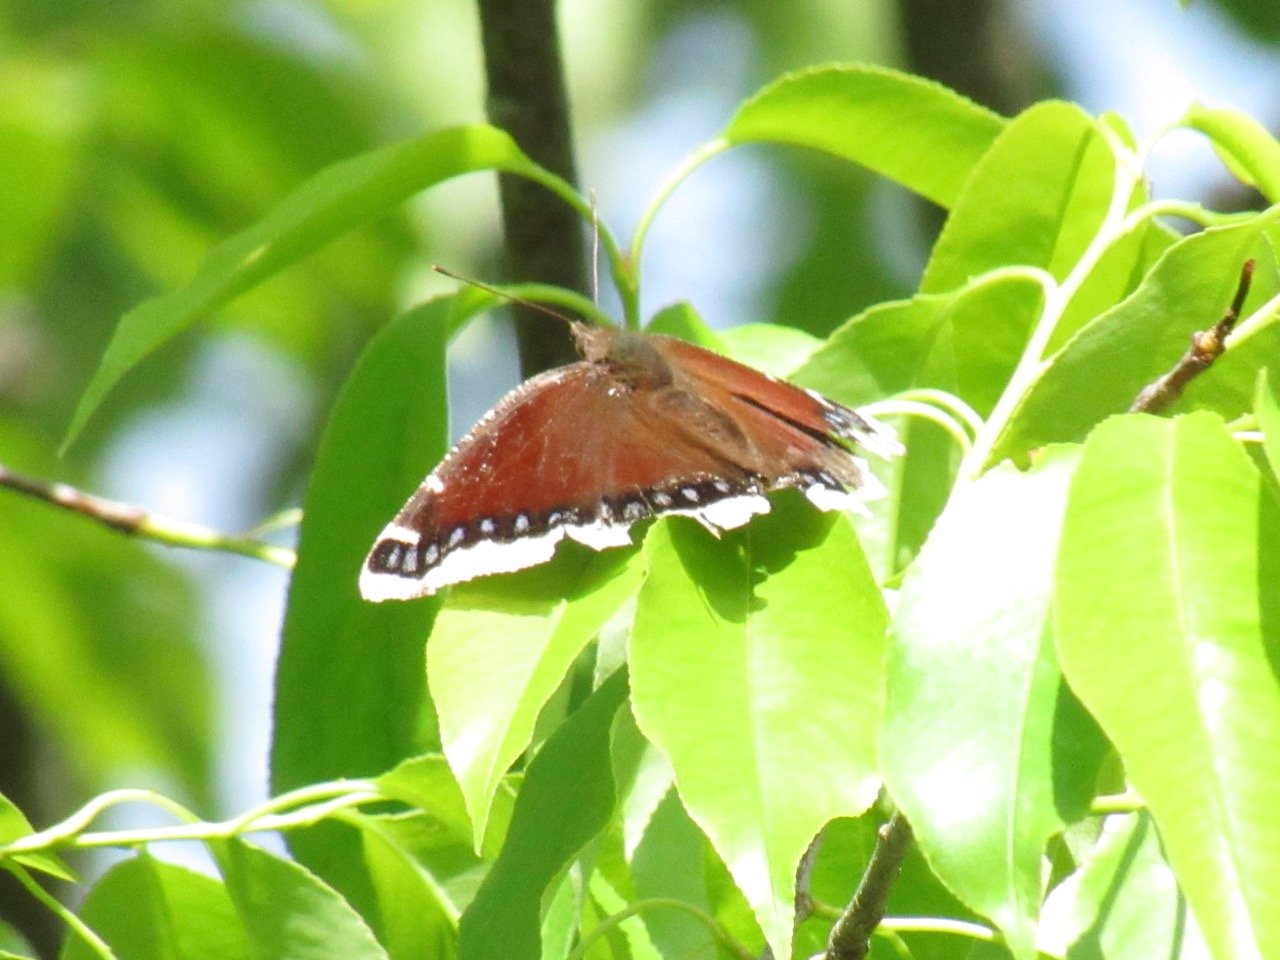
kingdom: Animalia
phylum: Arthropoda
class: Insecta
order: Lepidoptera
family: Nymphalidae
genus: Nymphalis
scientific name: Nymphalis antiopa
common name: Mourning Cloak
